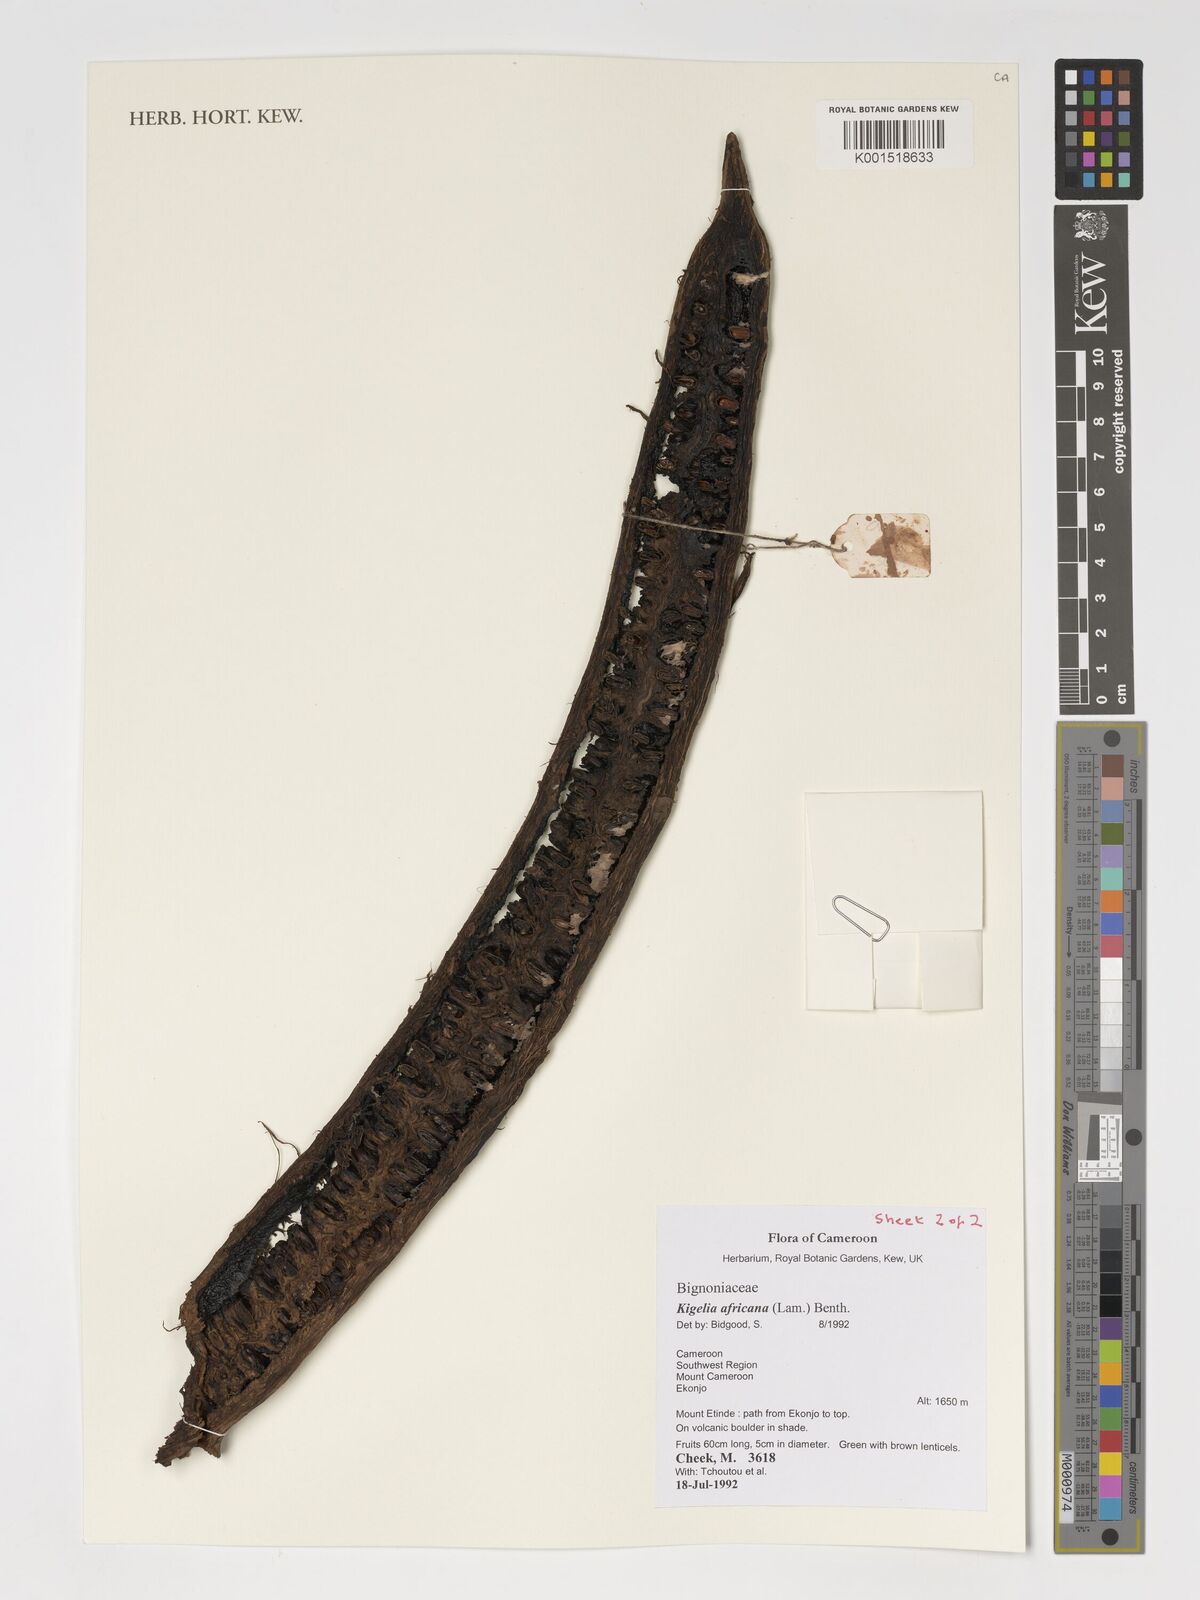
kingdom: Plantae
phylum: Tracheophyta
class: Magnoliopsida
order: Lamiales
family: Bignoniaceae
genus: Kigelia
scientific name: Kigelia africana
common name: Sausage tree
